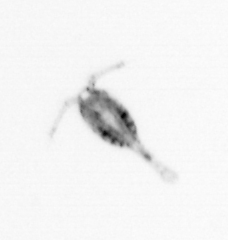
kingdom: Animalia
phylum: Arthropoda
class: Copepoda
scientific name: Copepoda
